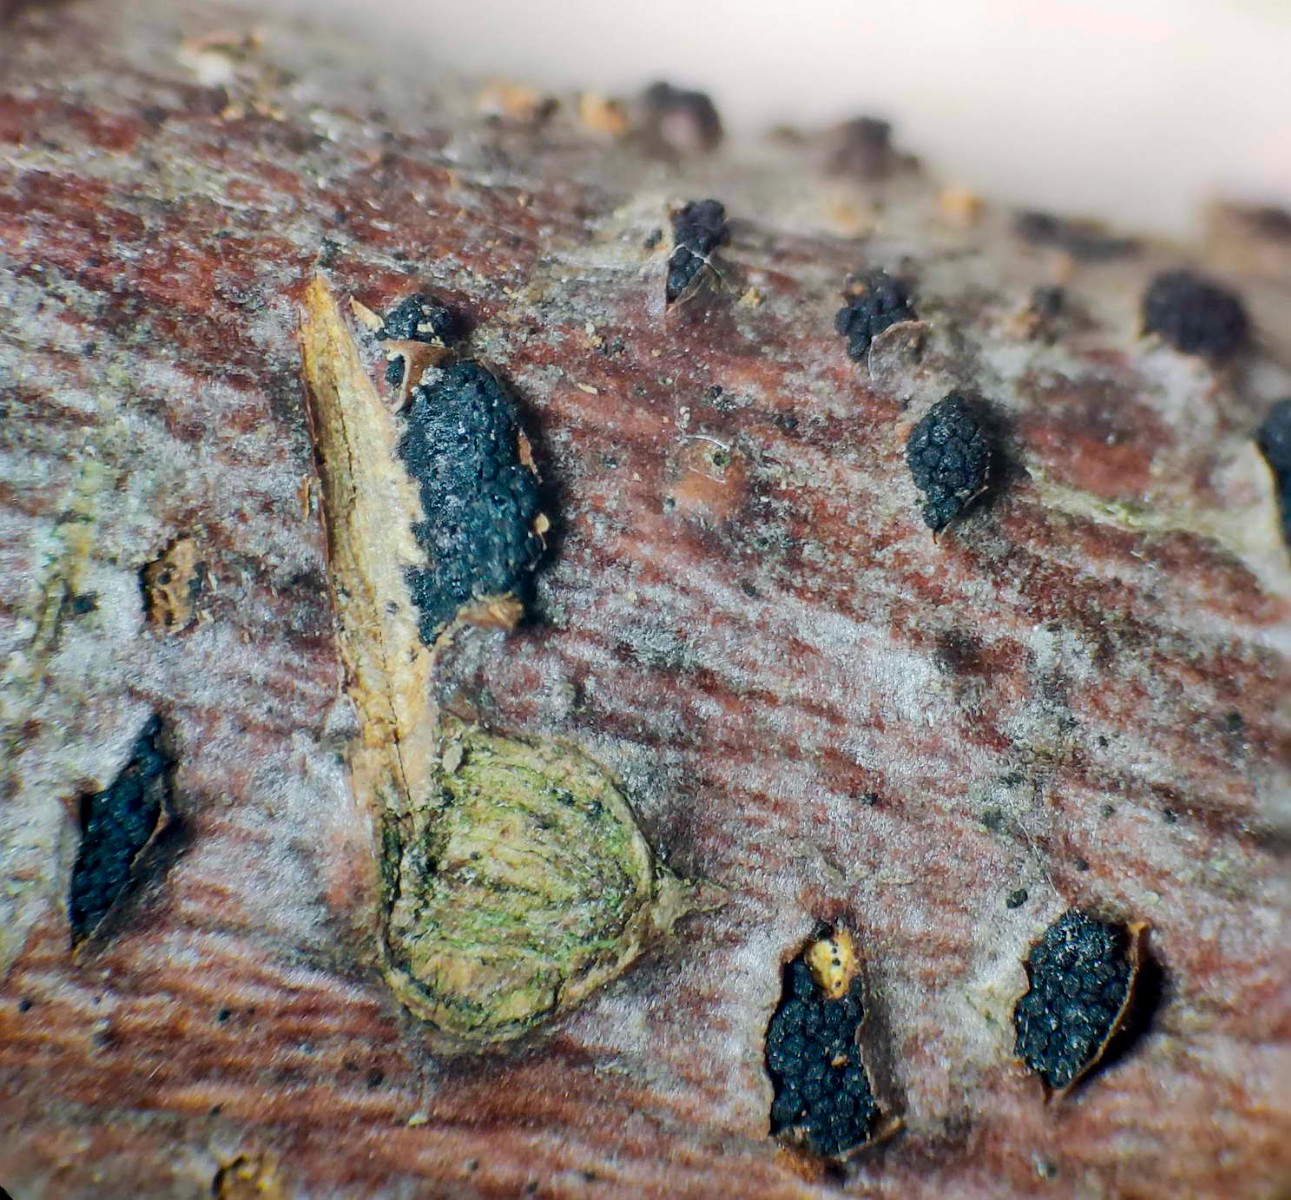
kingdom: Fungi
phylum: Ascomycota
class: Sordariomycetes
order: Xylariales
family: Diatrypaceae
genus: Eutypella
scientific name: Eutypella stellulata
